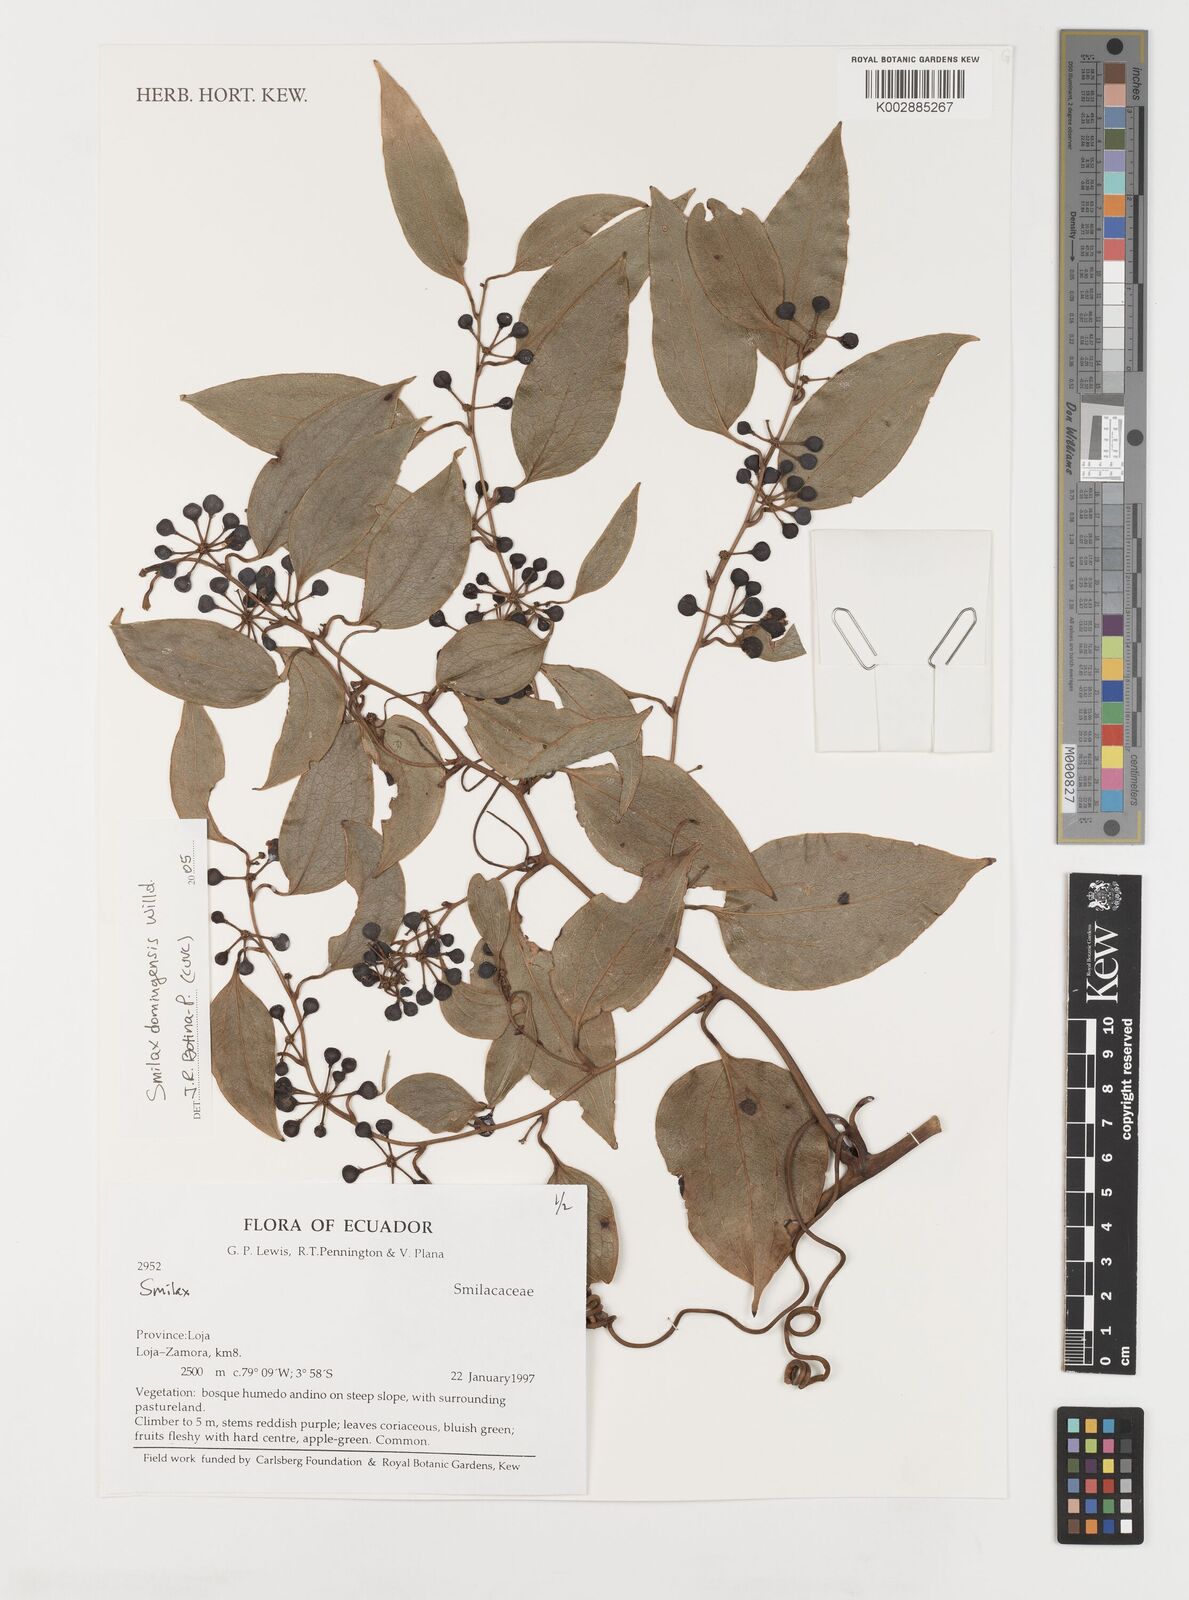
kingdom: Plantae
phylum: Tracheophyta
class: Liliopsida
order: Liliales
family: Smilacaceae
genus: Smilax
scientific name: Smilax domingensis
